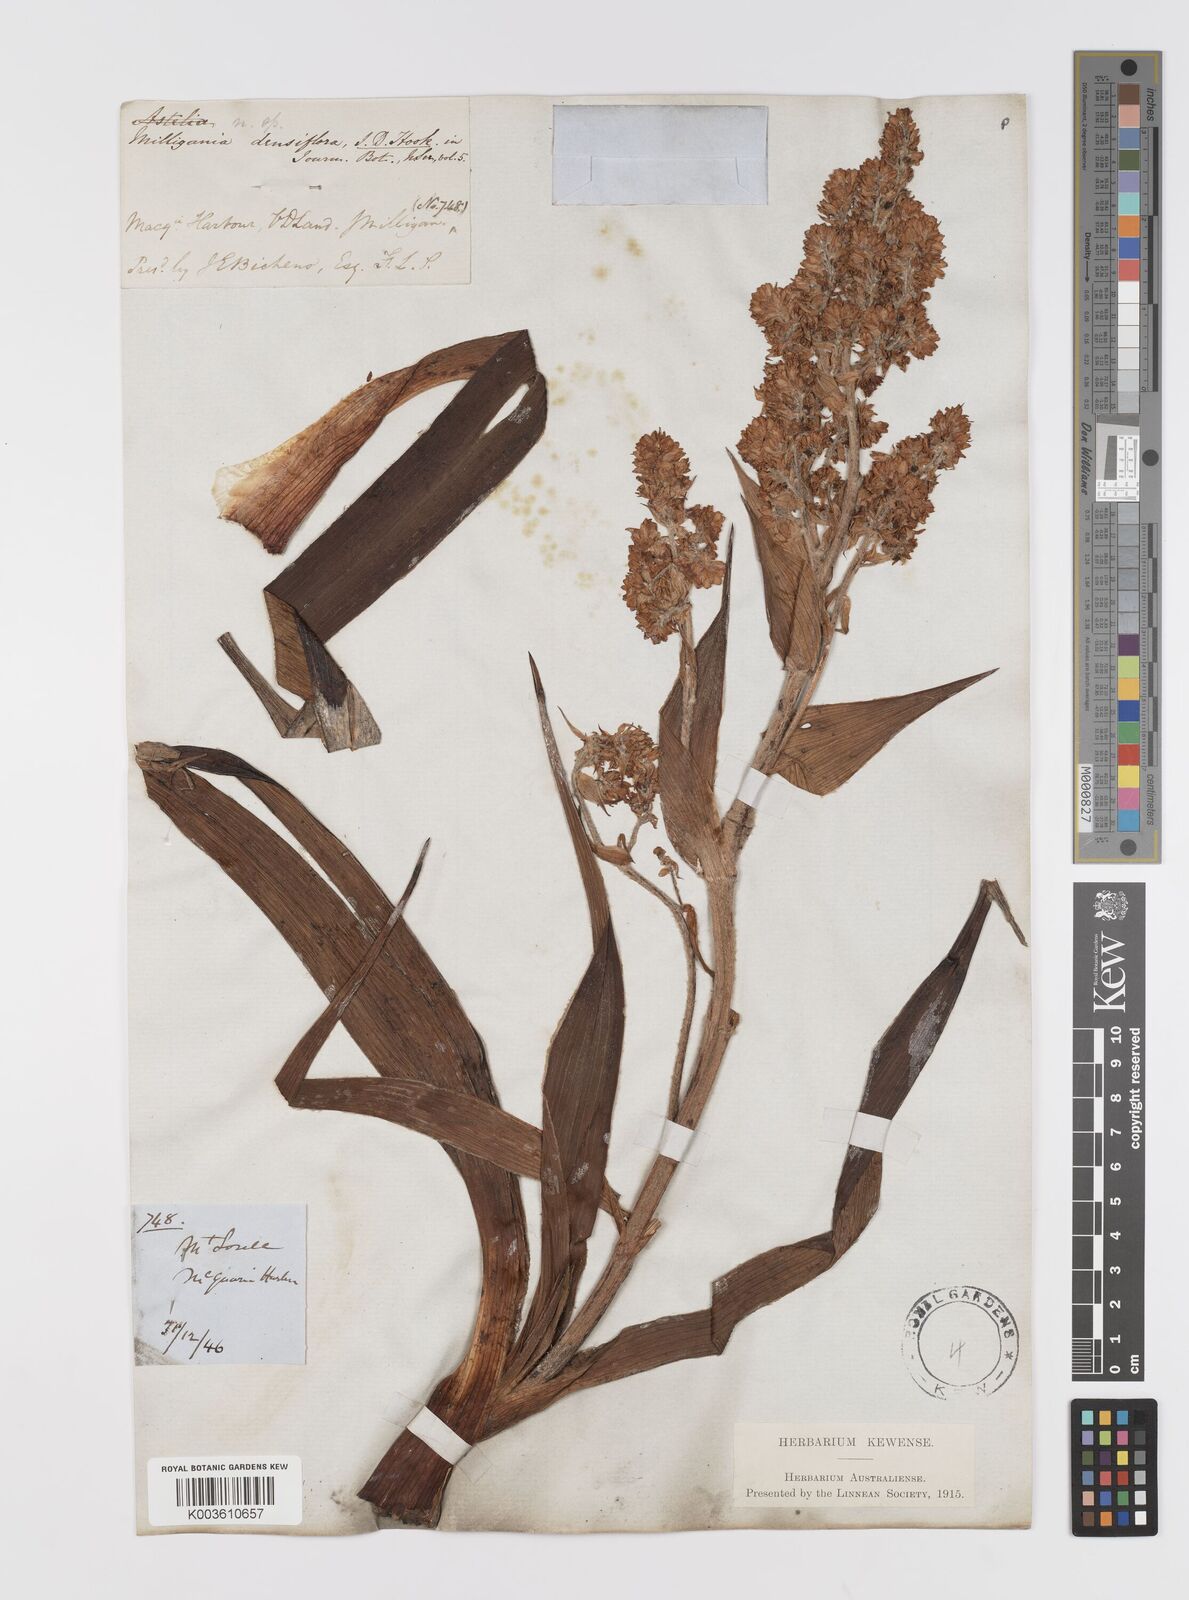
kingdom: Plantae
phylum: Tracheophyta
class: Liliopsida
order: Asparagales
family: Asteliaceae
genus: Milligania
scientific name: Milligania densiflora
